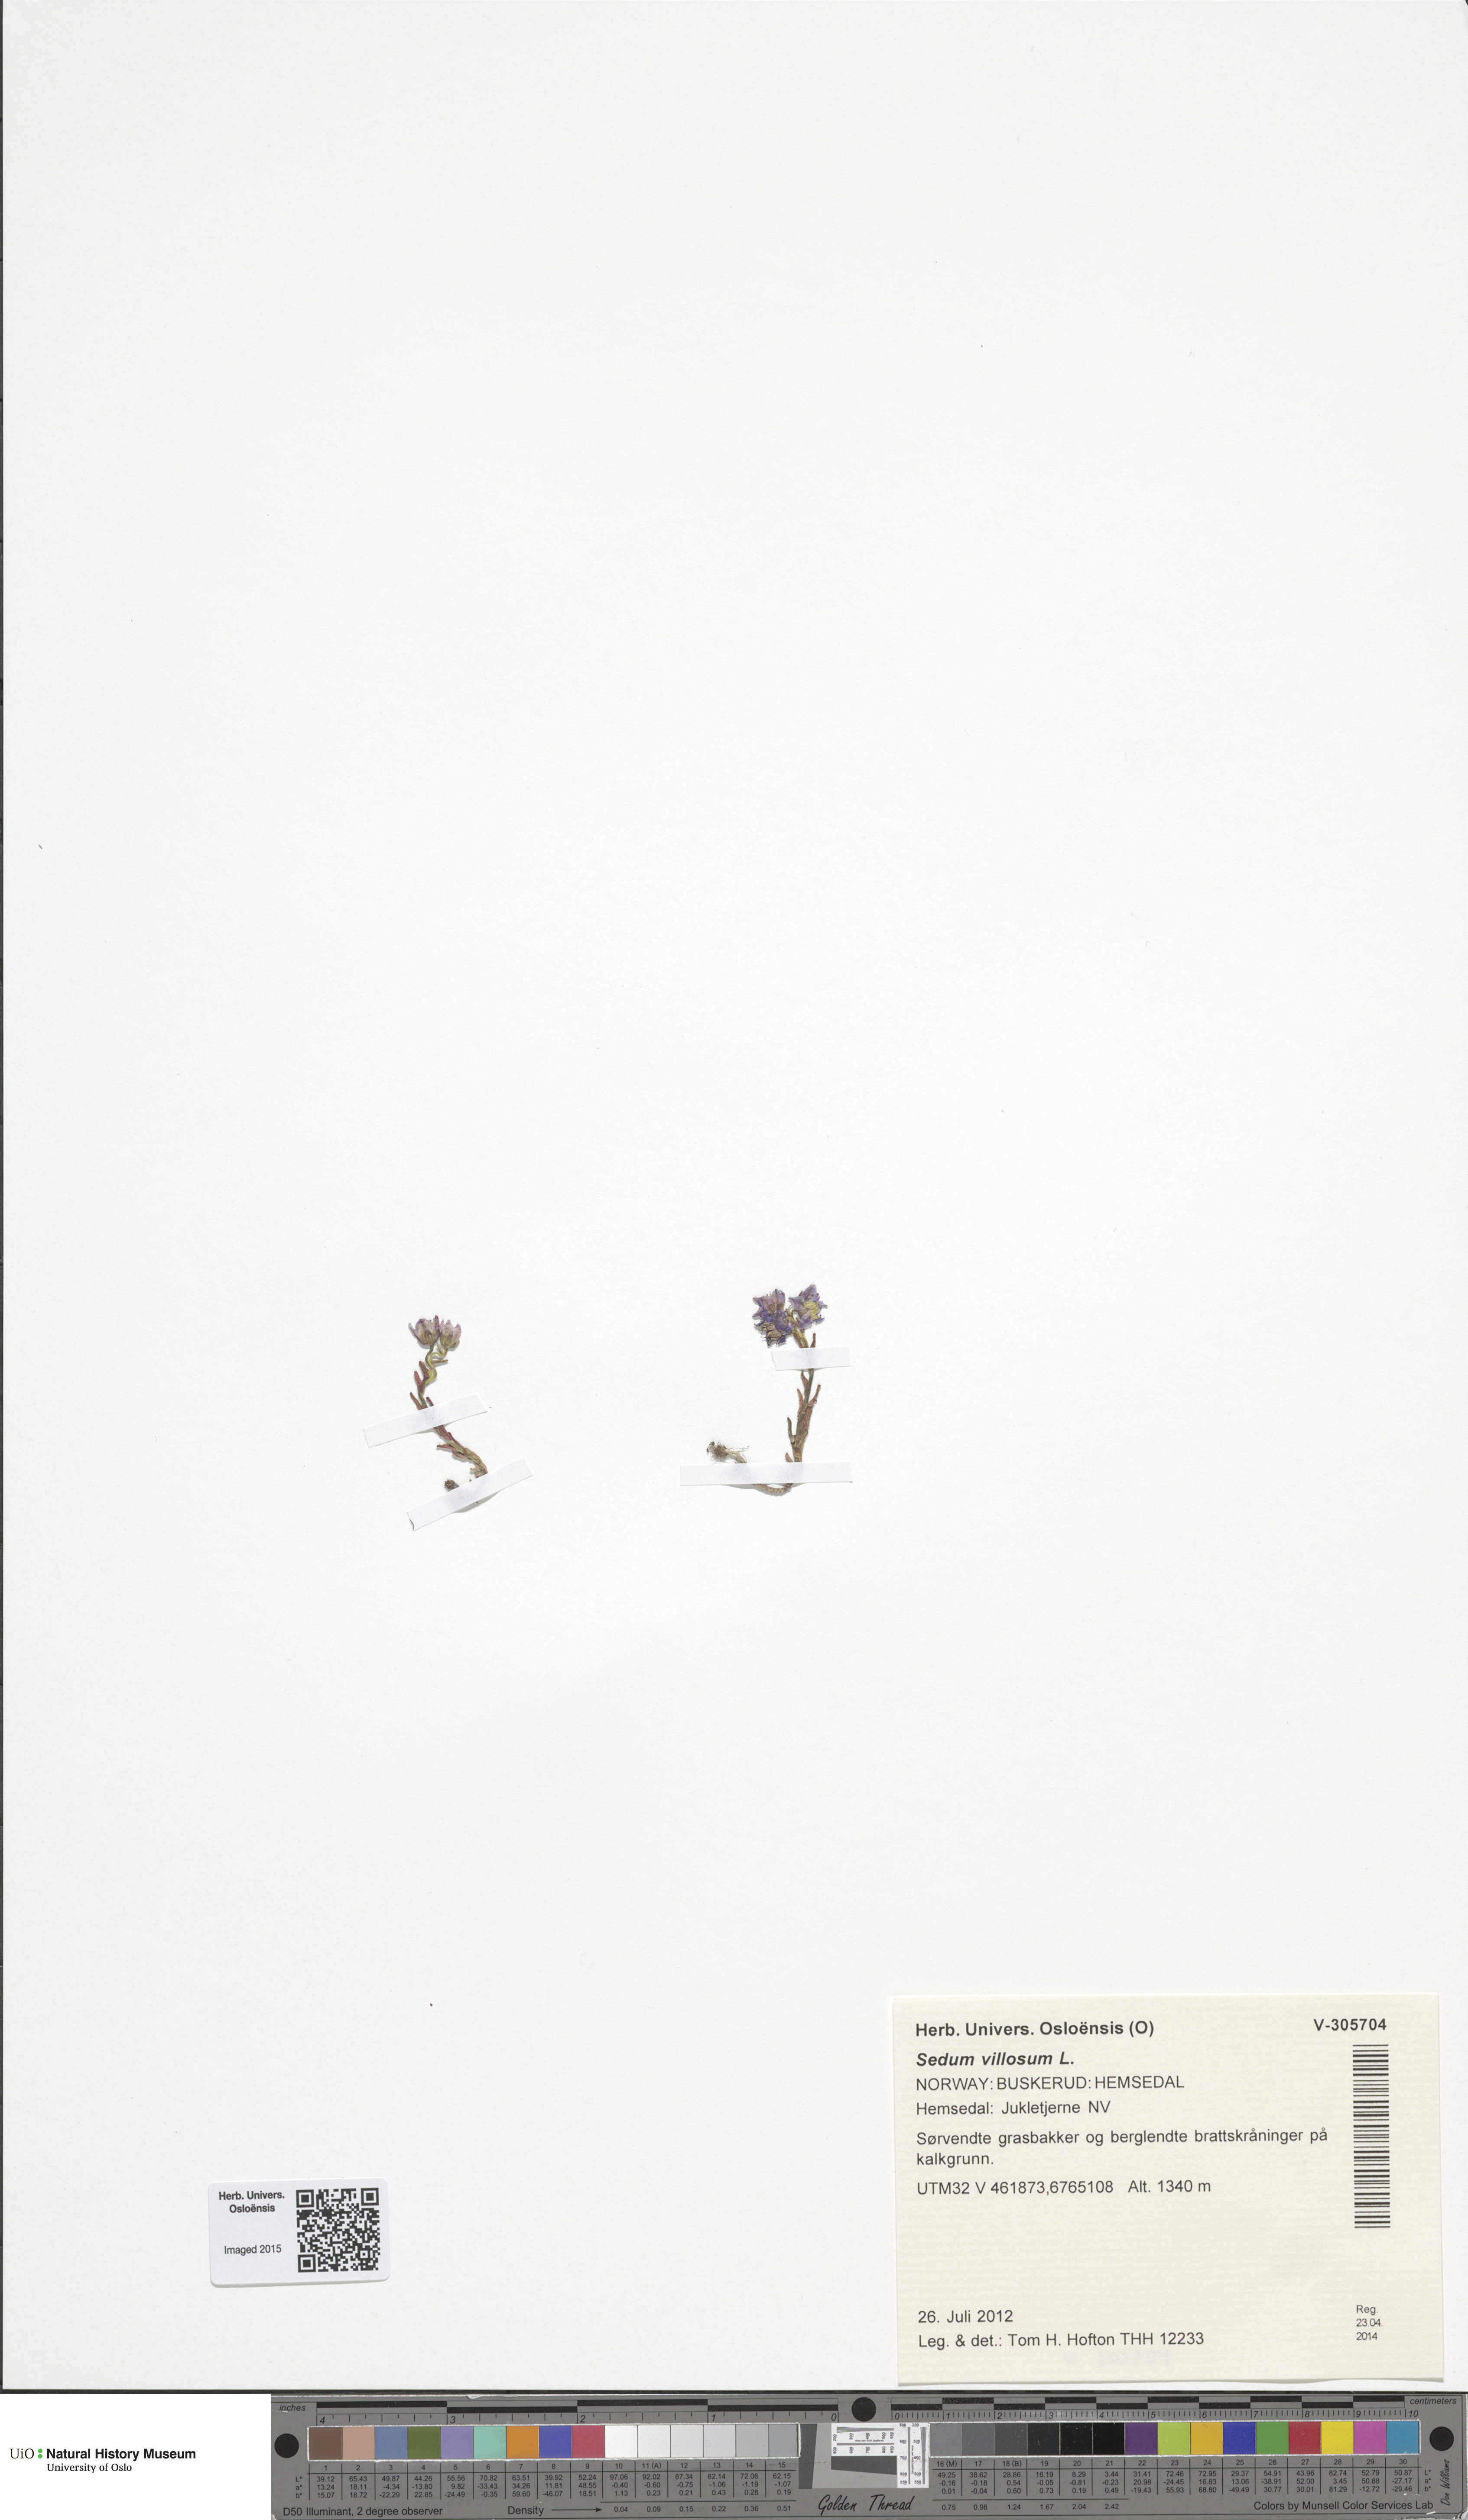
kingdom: Plantae
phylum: Tracheophyta
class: Magnoliopsida
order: Saxifragales
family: Crassulaceae
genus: Sedum
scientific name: Sedum villosum
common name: Hairy stonecrop
